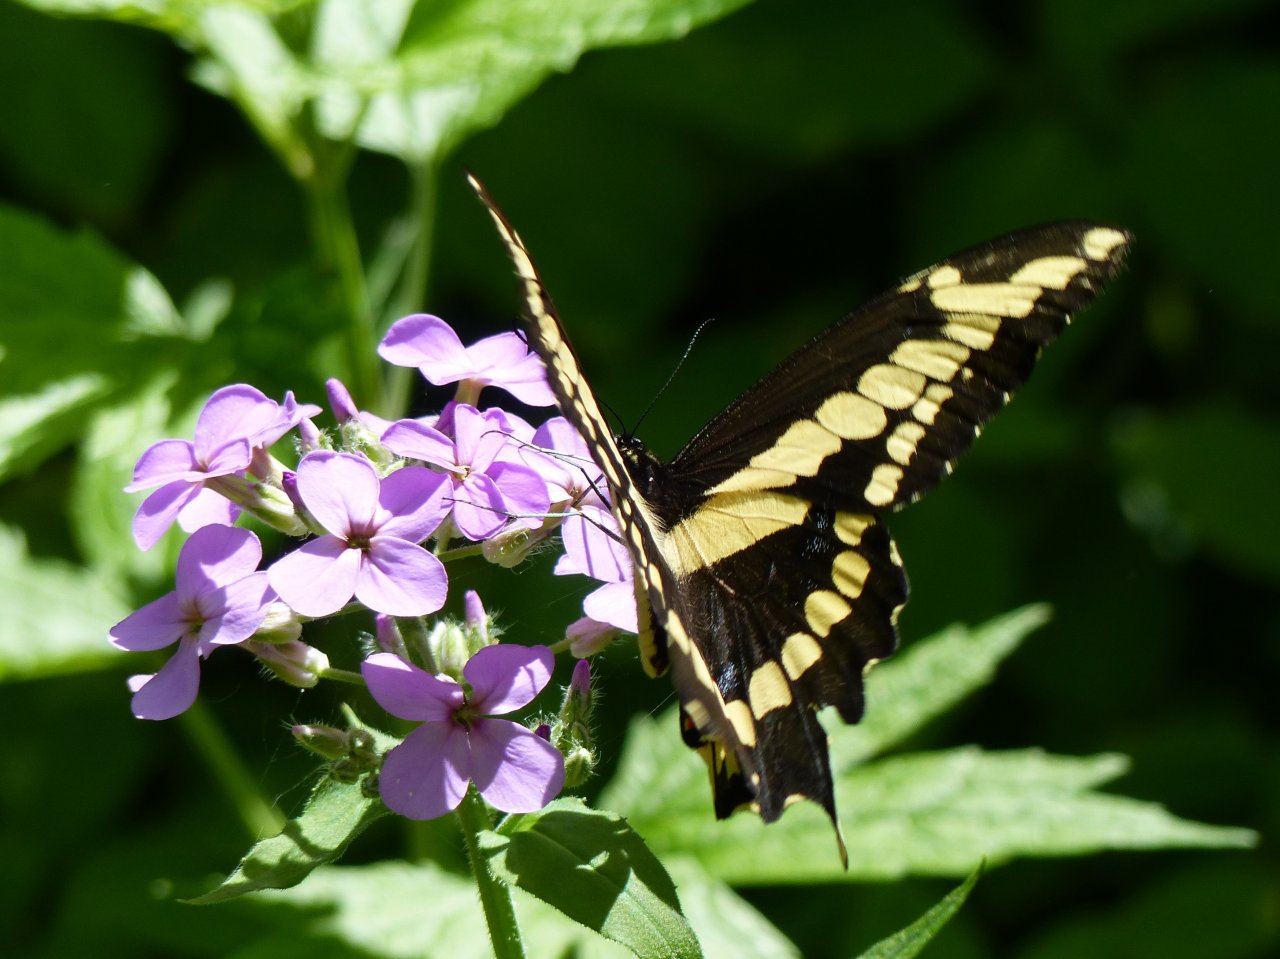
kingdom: Animalia
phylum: Arthropoda
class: Insecta
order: Lepidoptera
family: Papilionidae
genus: Papilio
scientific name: Papilio cresphontes
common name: Eastern Giant Swallowtail
